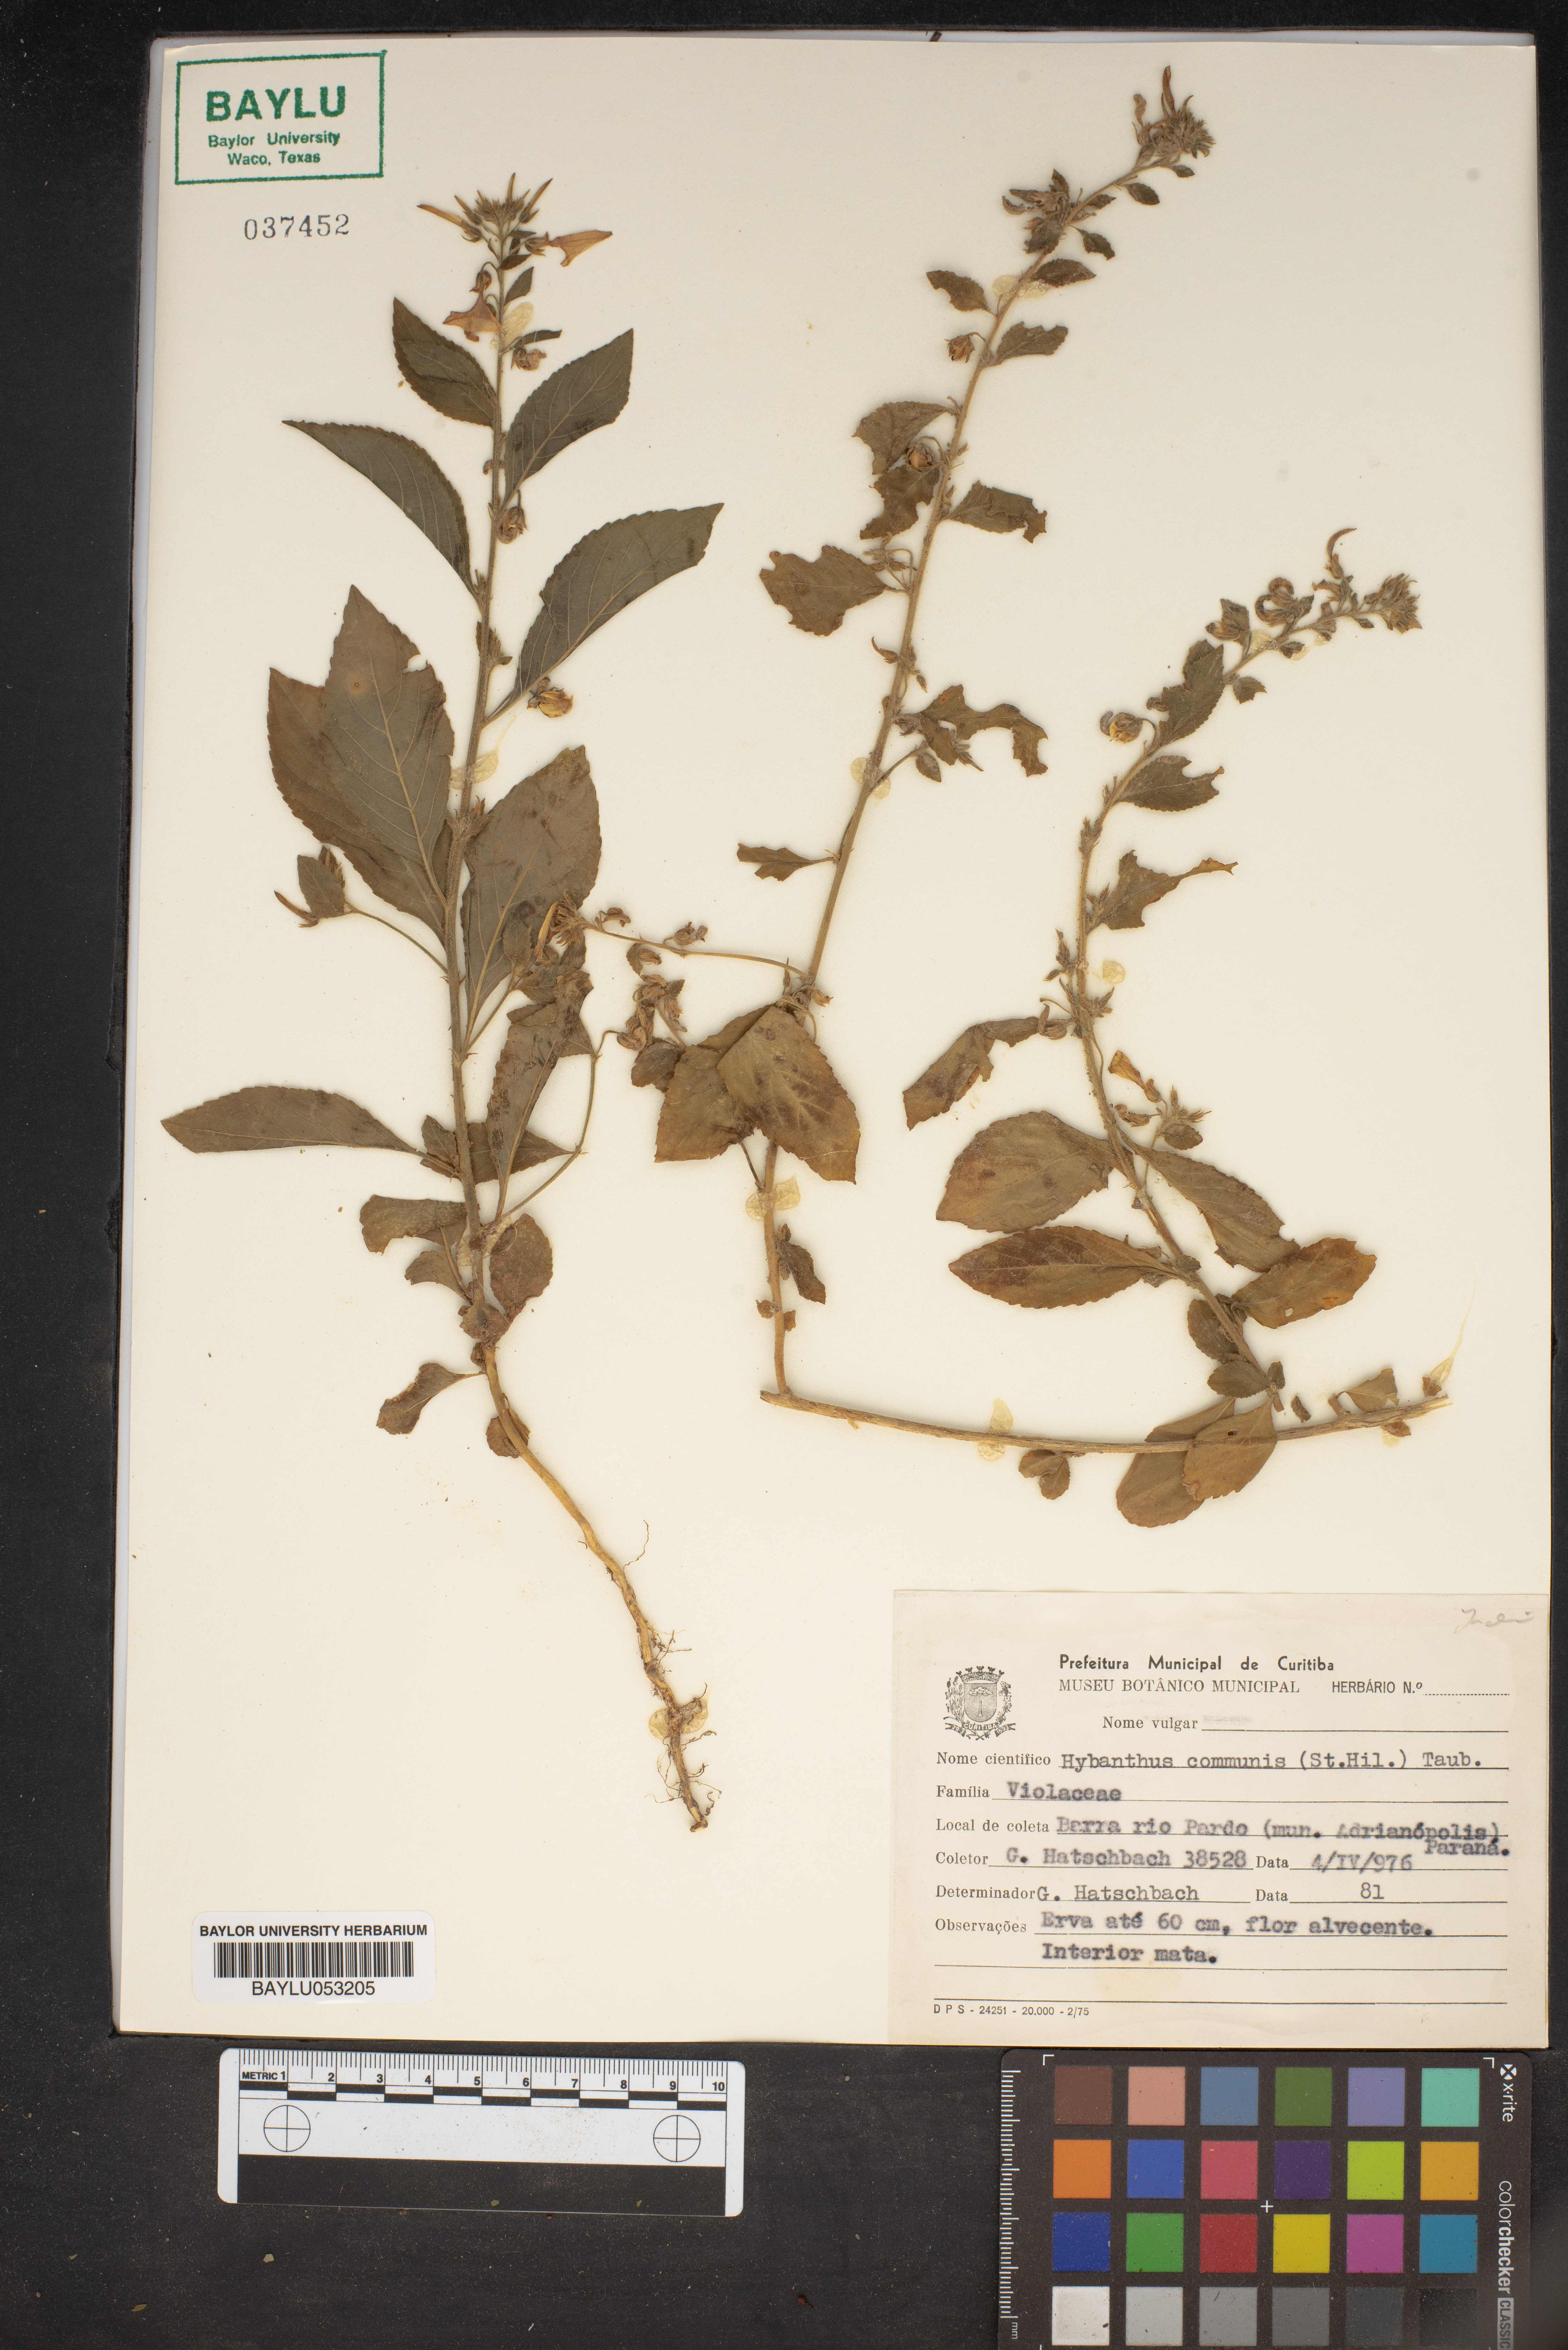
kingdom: Plantae
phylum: Tracheophyta
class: Magnoliopsida
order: Malpighiales
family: Violaceae
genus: Pombalia
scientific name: Pombalia communis
